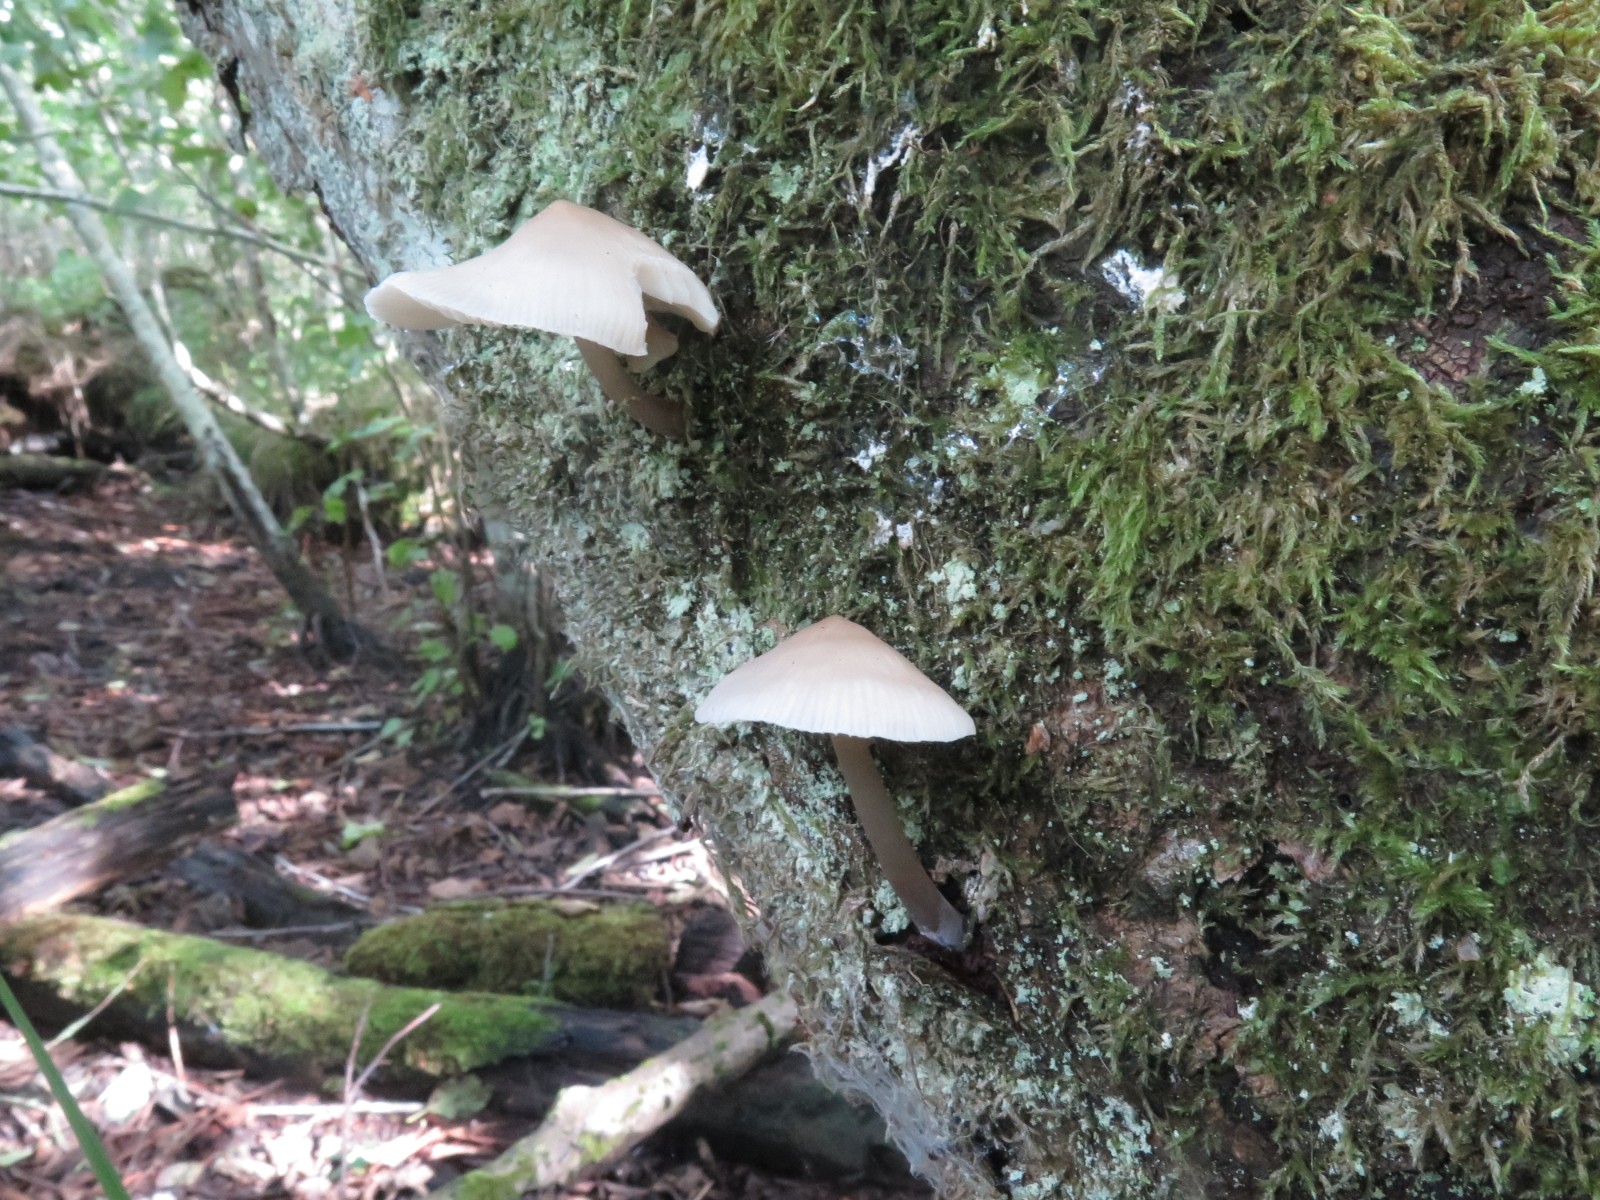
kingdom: Fungi
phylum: Basidiomycota
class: Agaricomycetes
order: Agaricales
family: Mycenaceae
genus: Mycena
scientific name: Mycena galericulata
